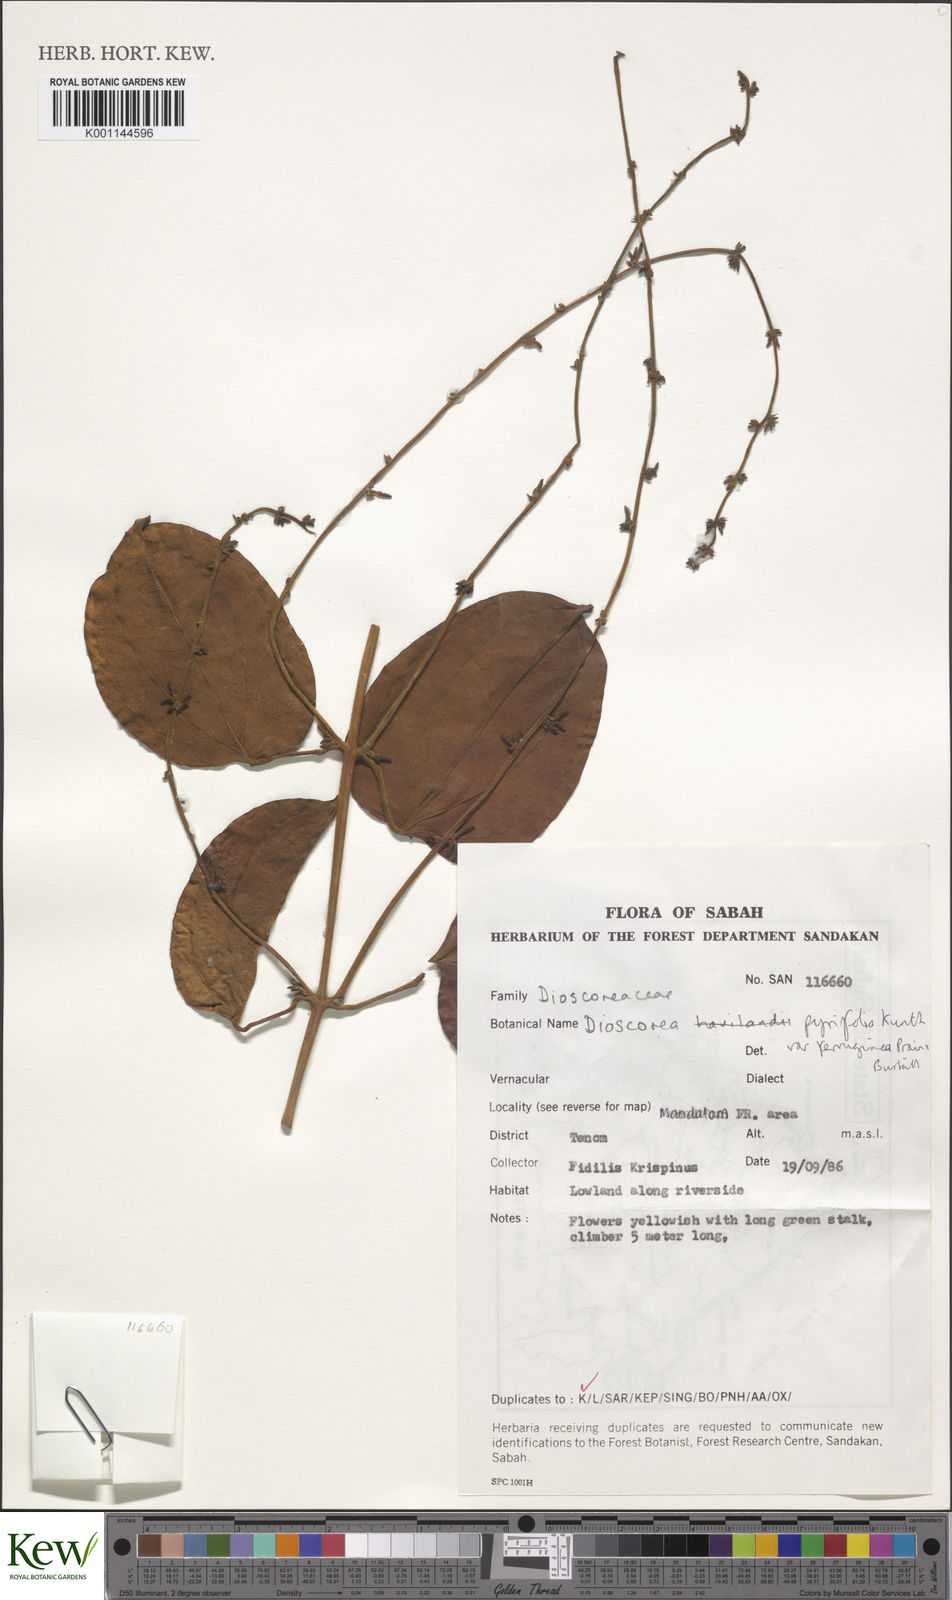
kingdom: Plantae
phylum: Tracheophyta
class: Liliopsida
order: Dioscoreales
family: Dioscoreaceae
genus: Dioscorea
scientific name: Dioscorea pyrifolia
